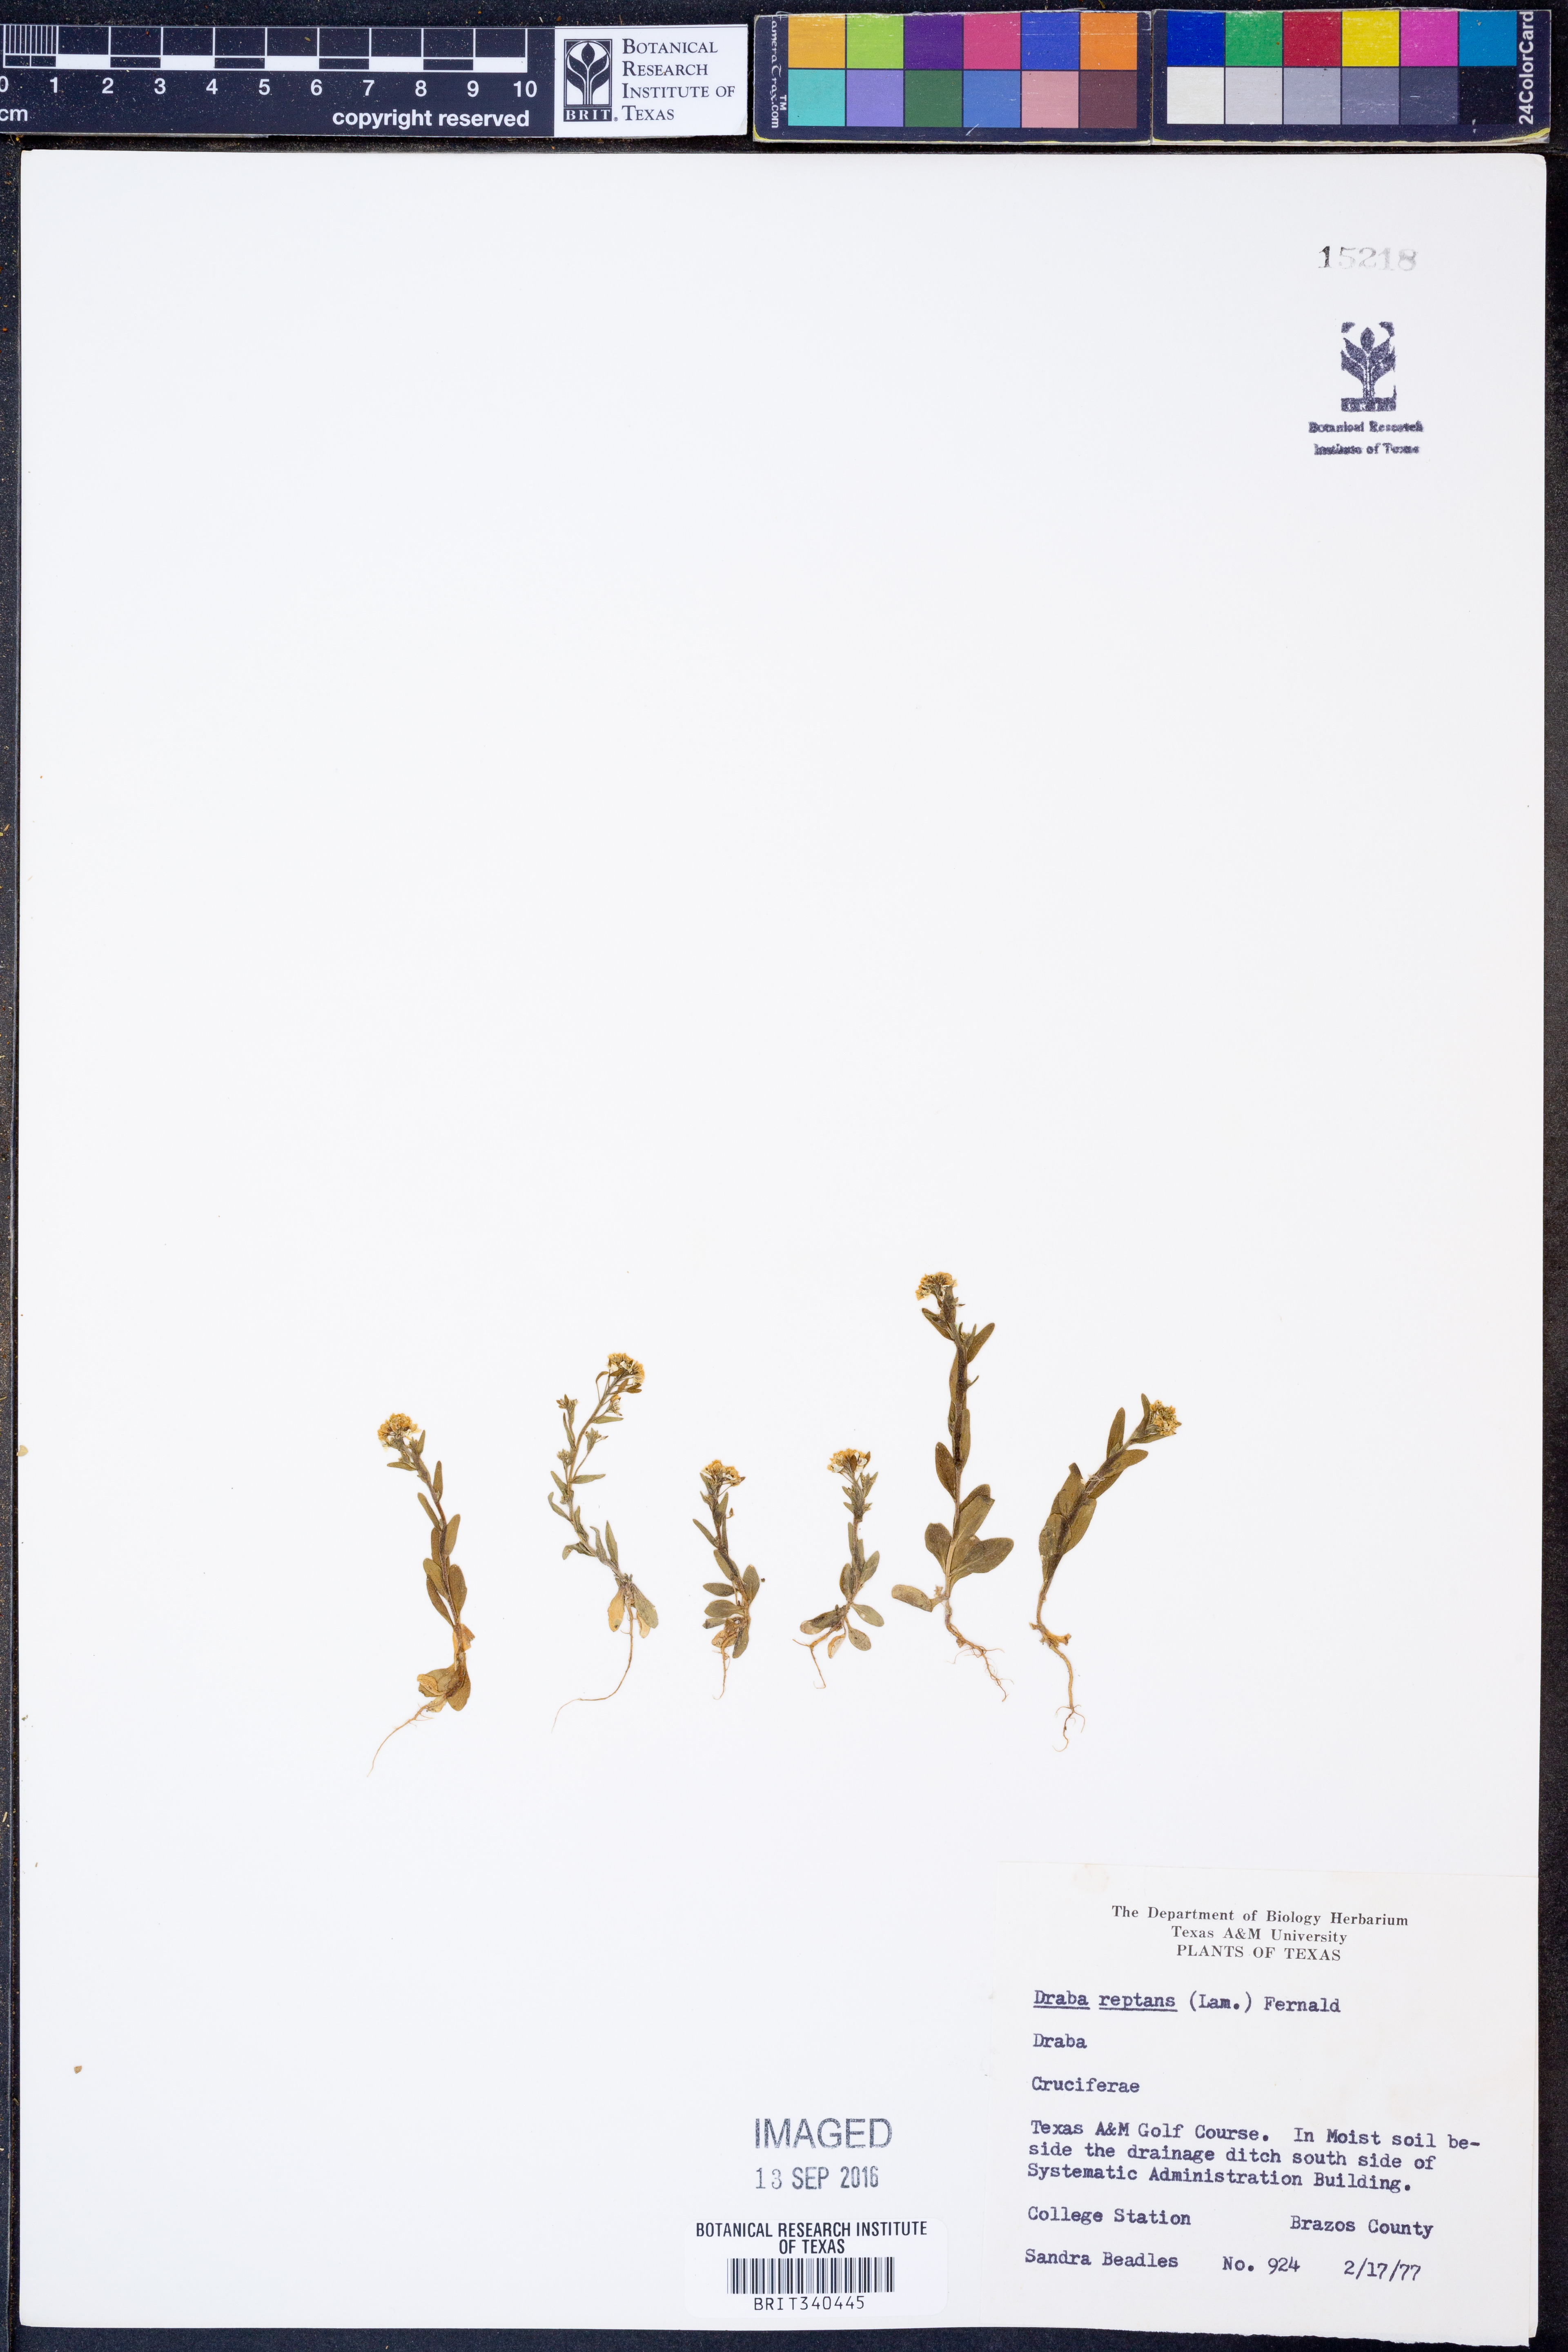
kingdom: Plantae
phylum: Tracheophyta
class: Magnoliopsida
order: Brassicales
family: Brassicaceae
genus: Tomostima
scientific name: Tomostima reptans
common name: Carolina draba
